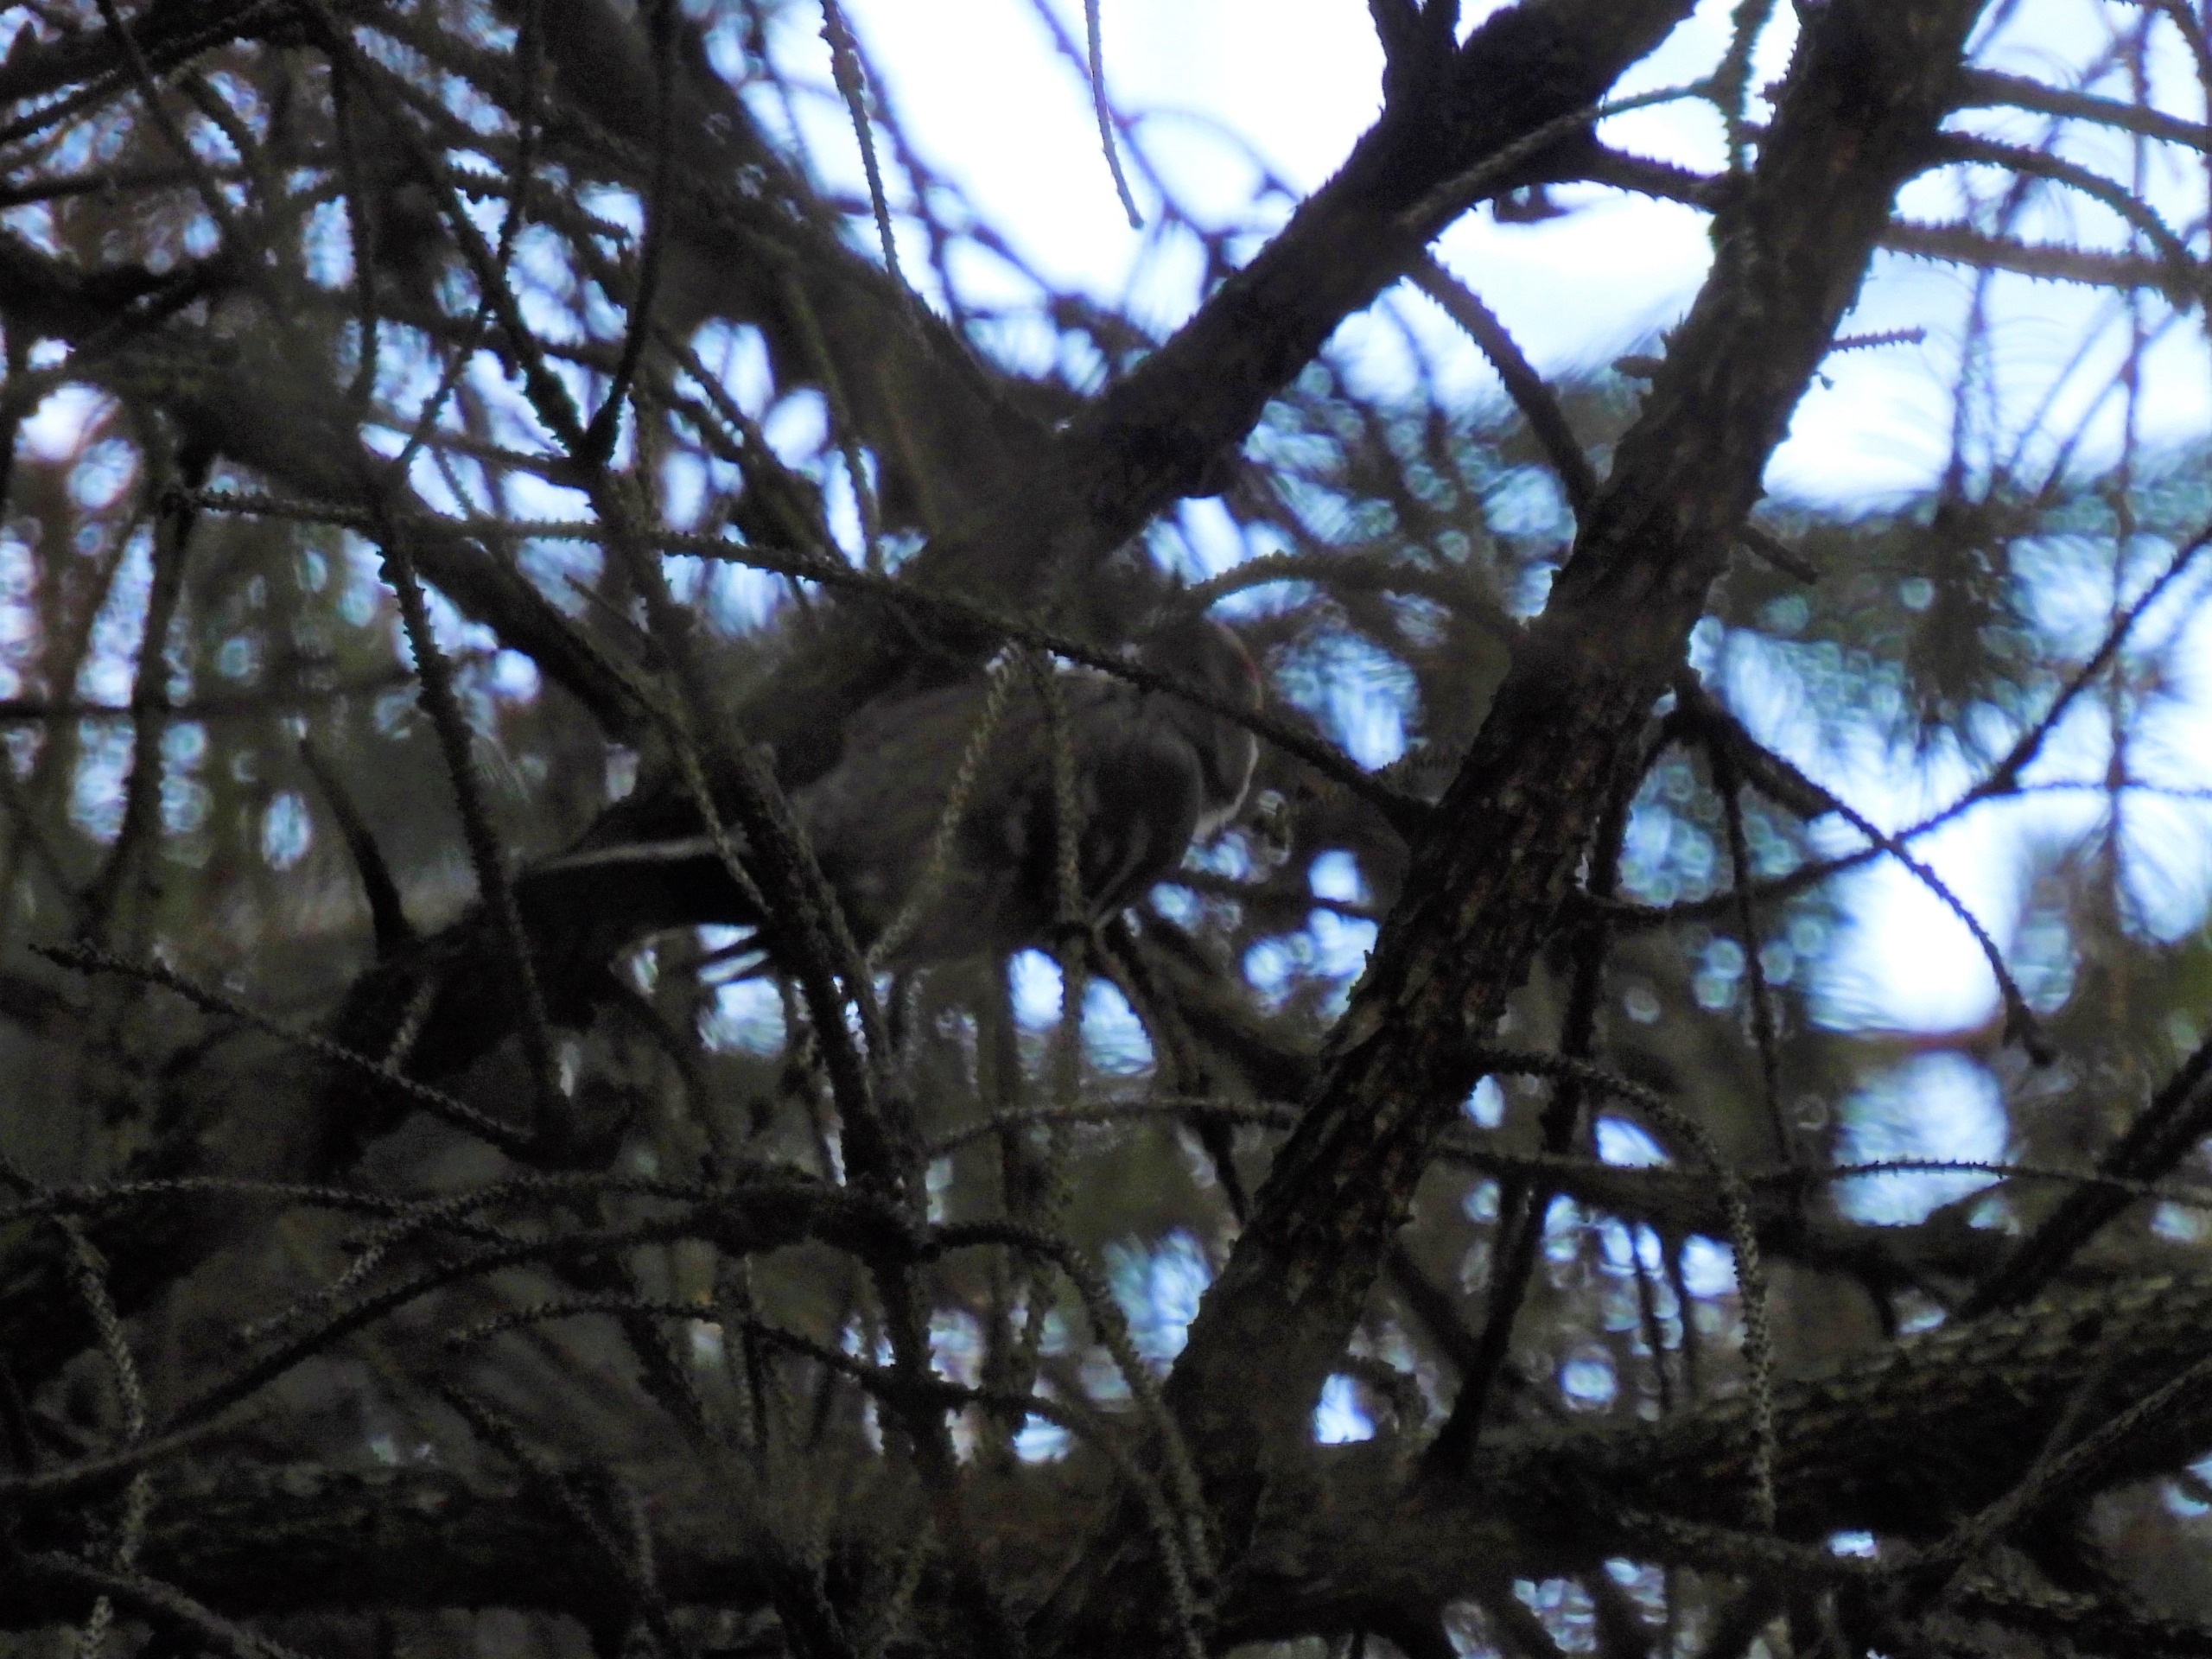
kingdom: Animalia
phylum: Chordata
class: Aves
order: Piciformes
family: Picidae
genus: Dryobates
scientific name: Dryobates minor
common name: Lille flagspætte
